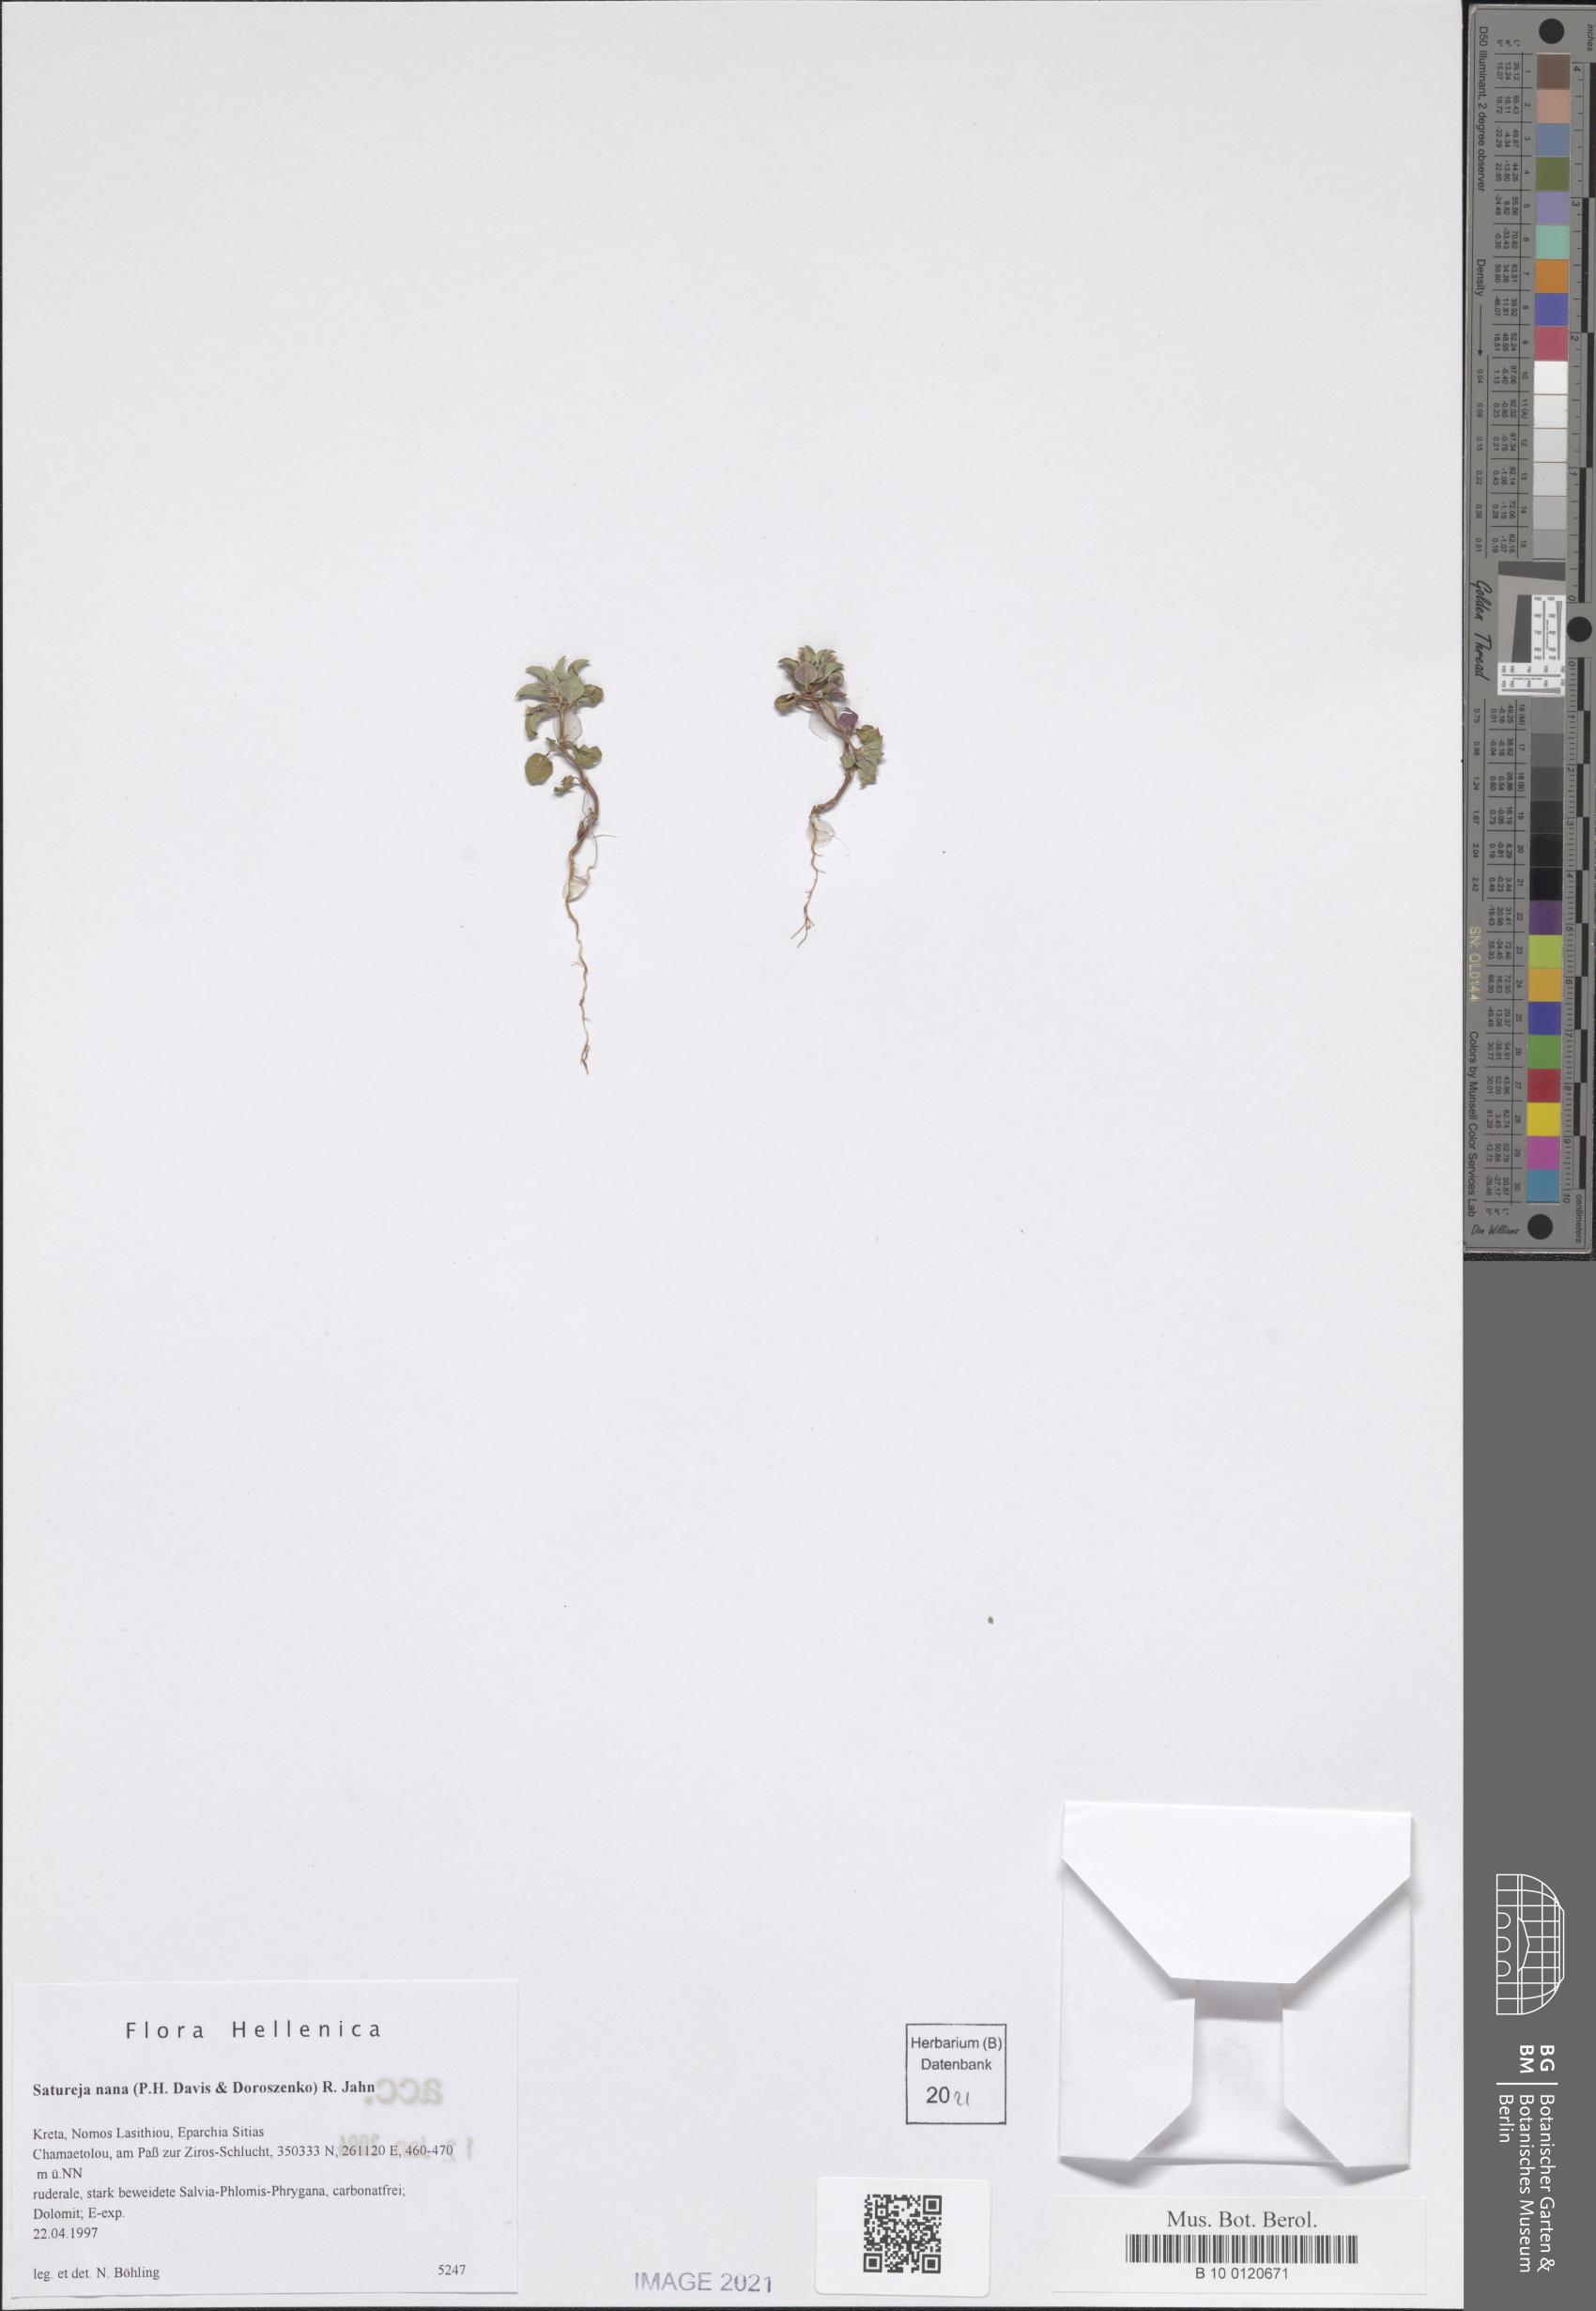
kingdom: Plantae
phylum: Tracheophyta
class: Magnoliopsida
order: Lamiales
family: Lamiaceae
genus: Clinopodium
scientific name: Clinopodium nanum
